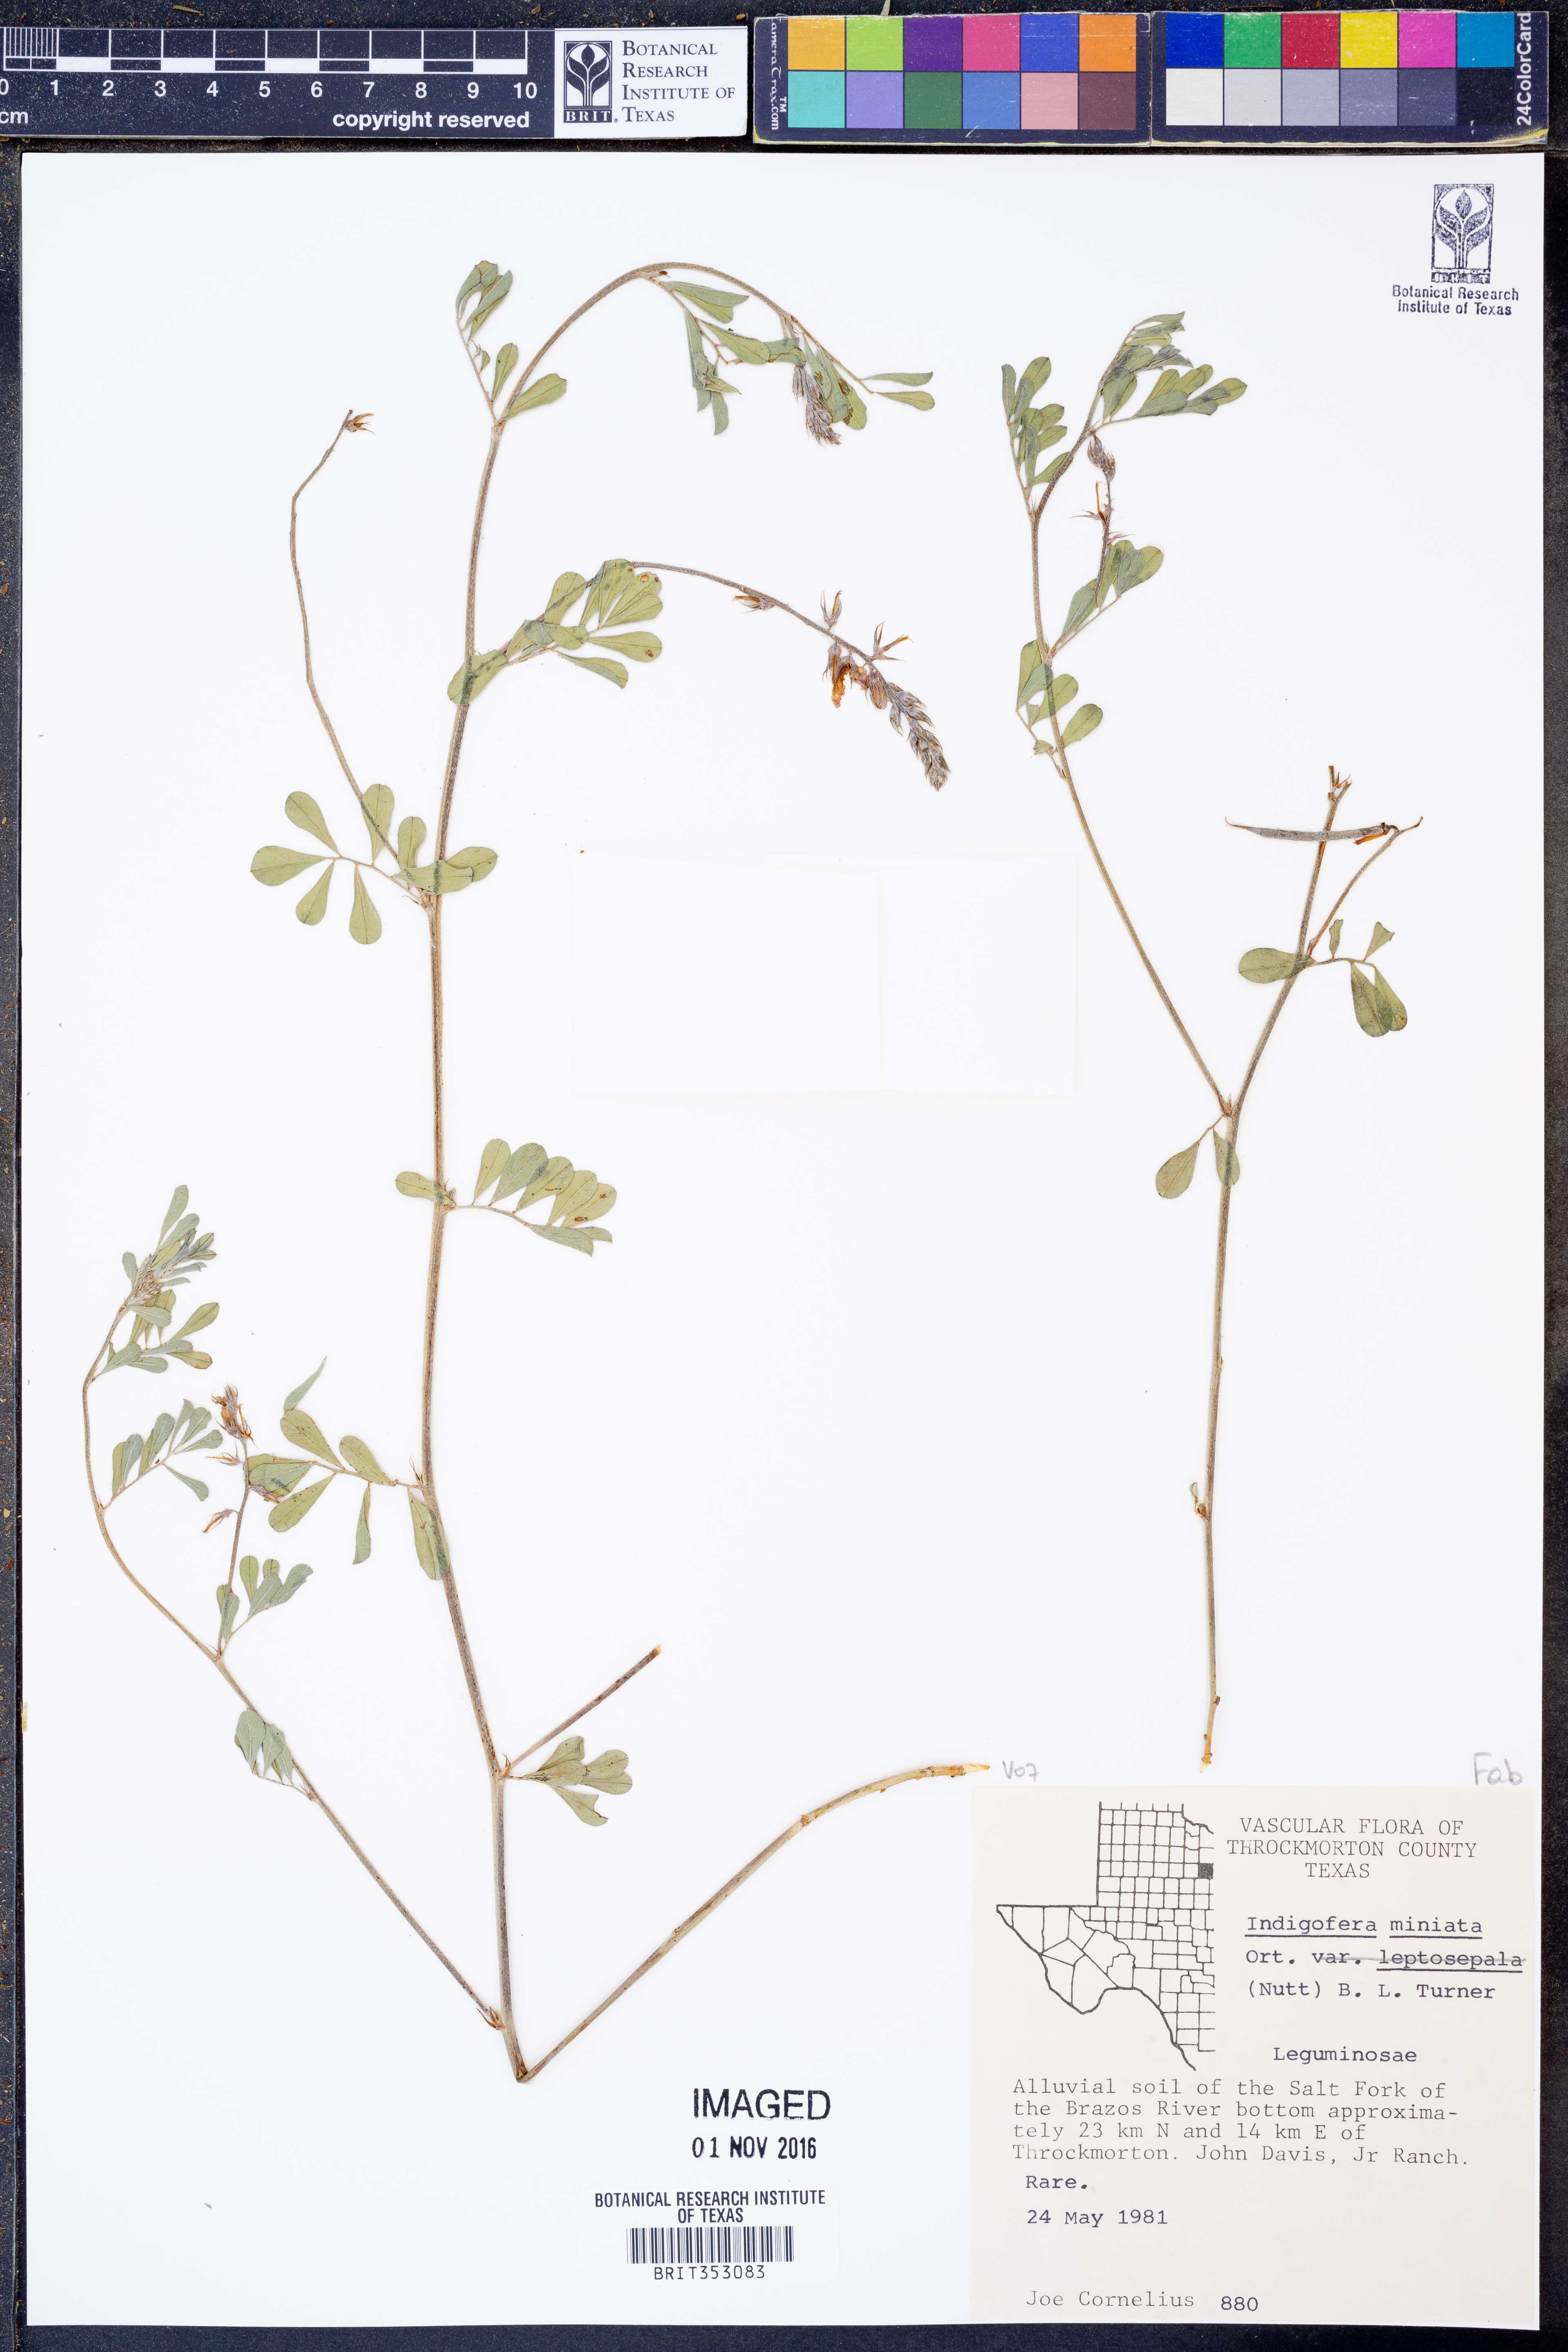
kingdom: Plantae
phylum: Tracheophyta
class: Magnoliopsida
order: Fabales
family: Fabaceae
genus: Indigofera
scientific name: Indigofera miniata
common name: Coast indigo
